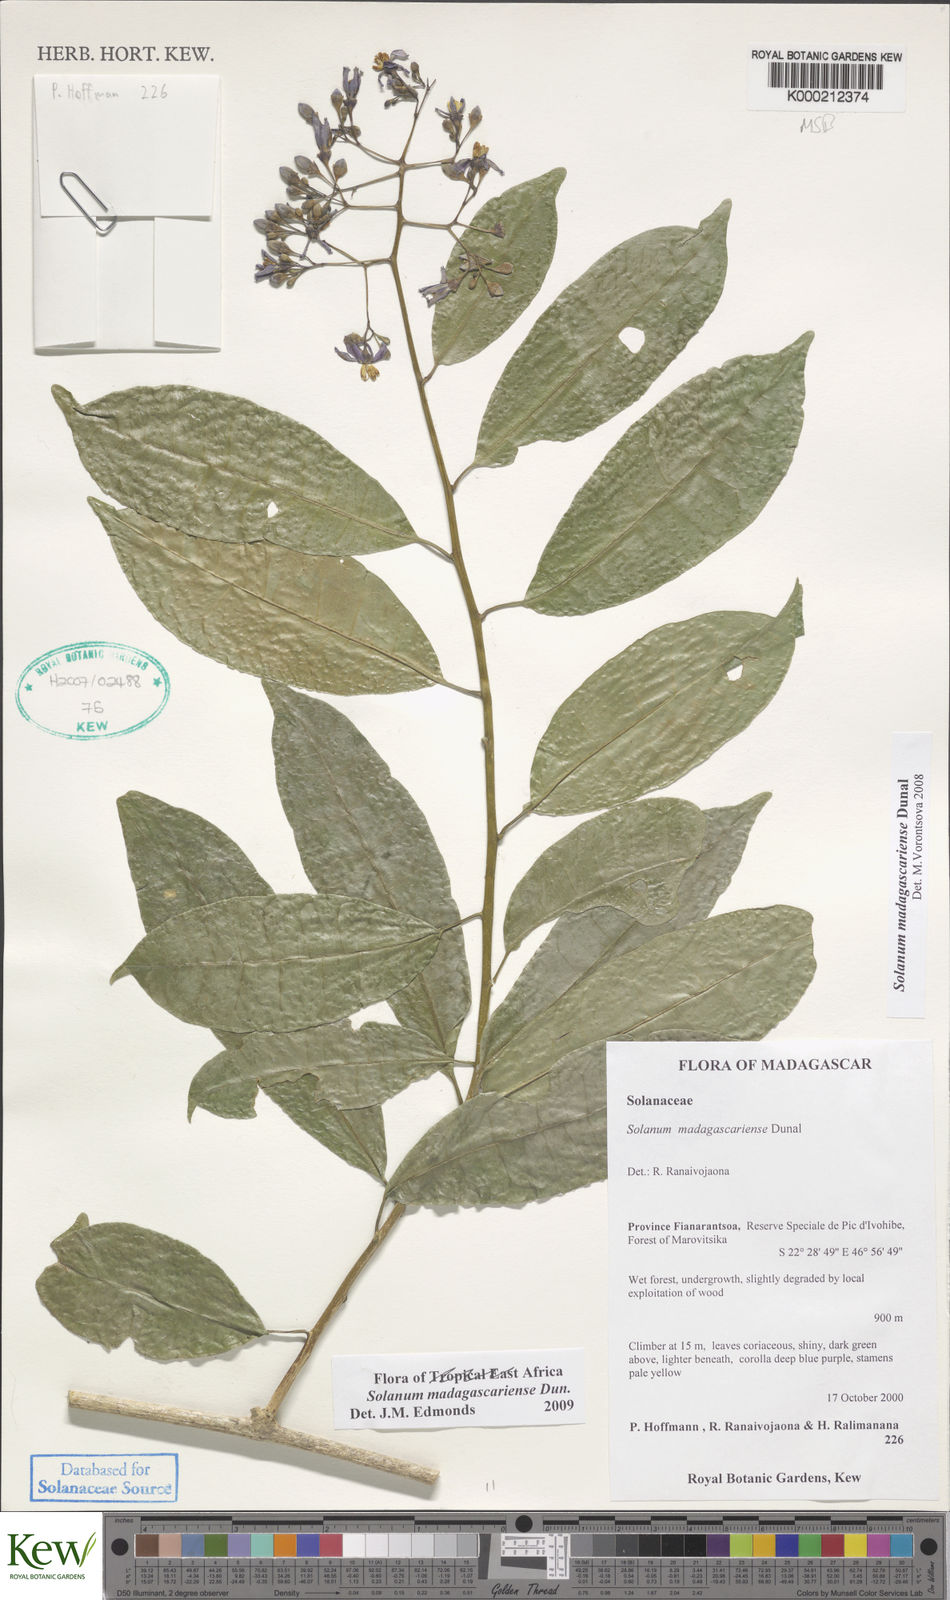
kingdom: Plantae
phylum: Tracheophyta
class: Magnoliopsida
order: Solanales
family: Solanaceae
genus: Solanum
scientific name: Solanum madagascariense
